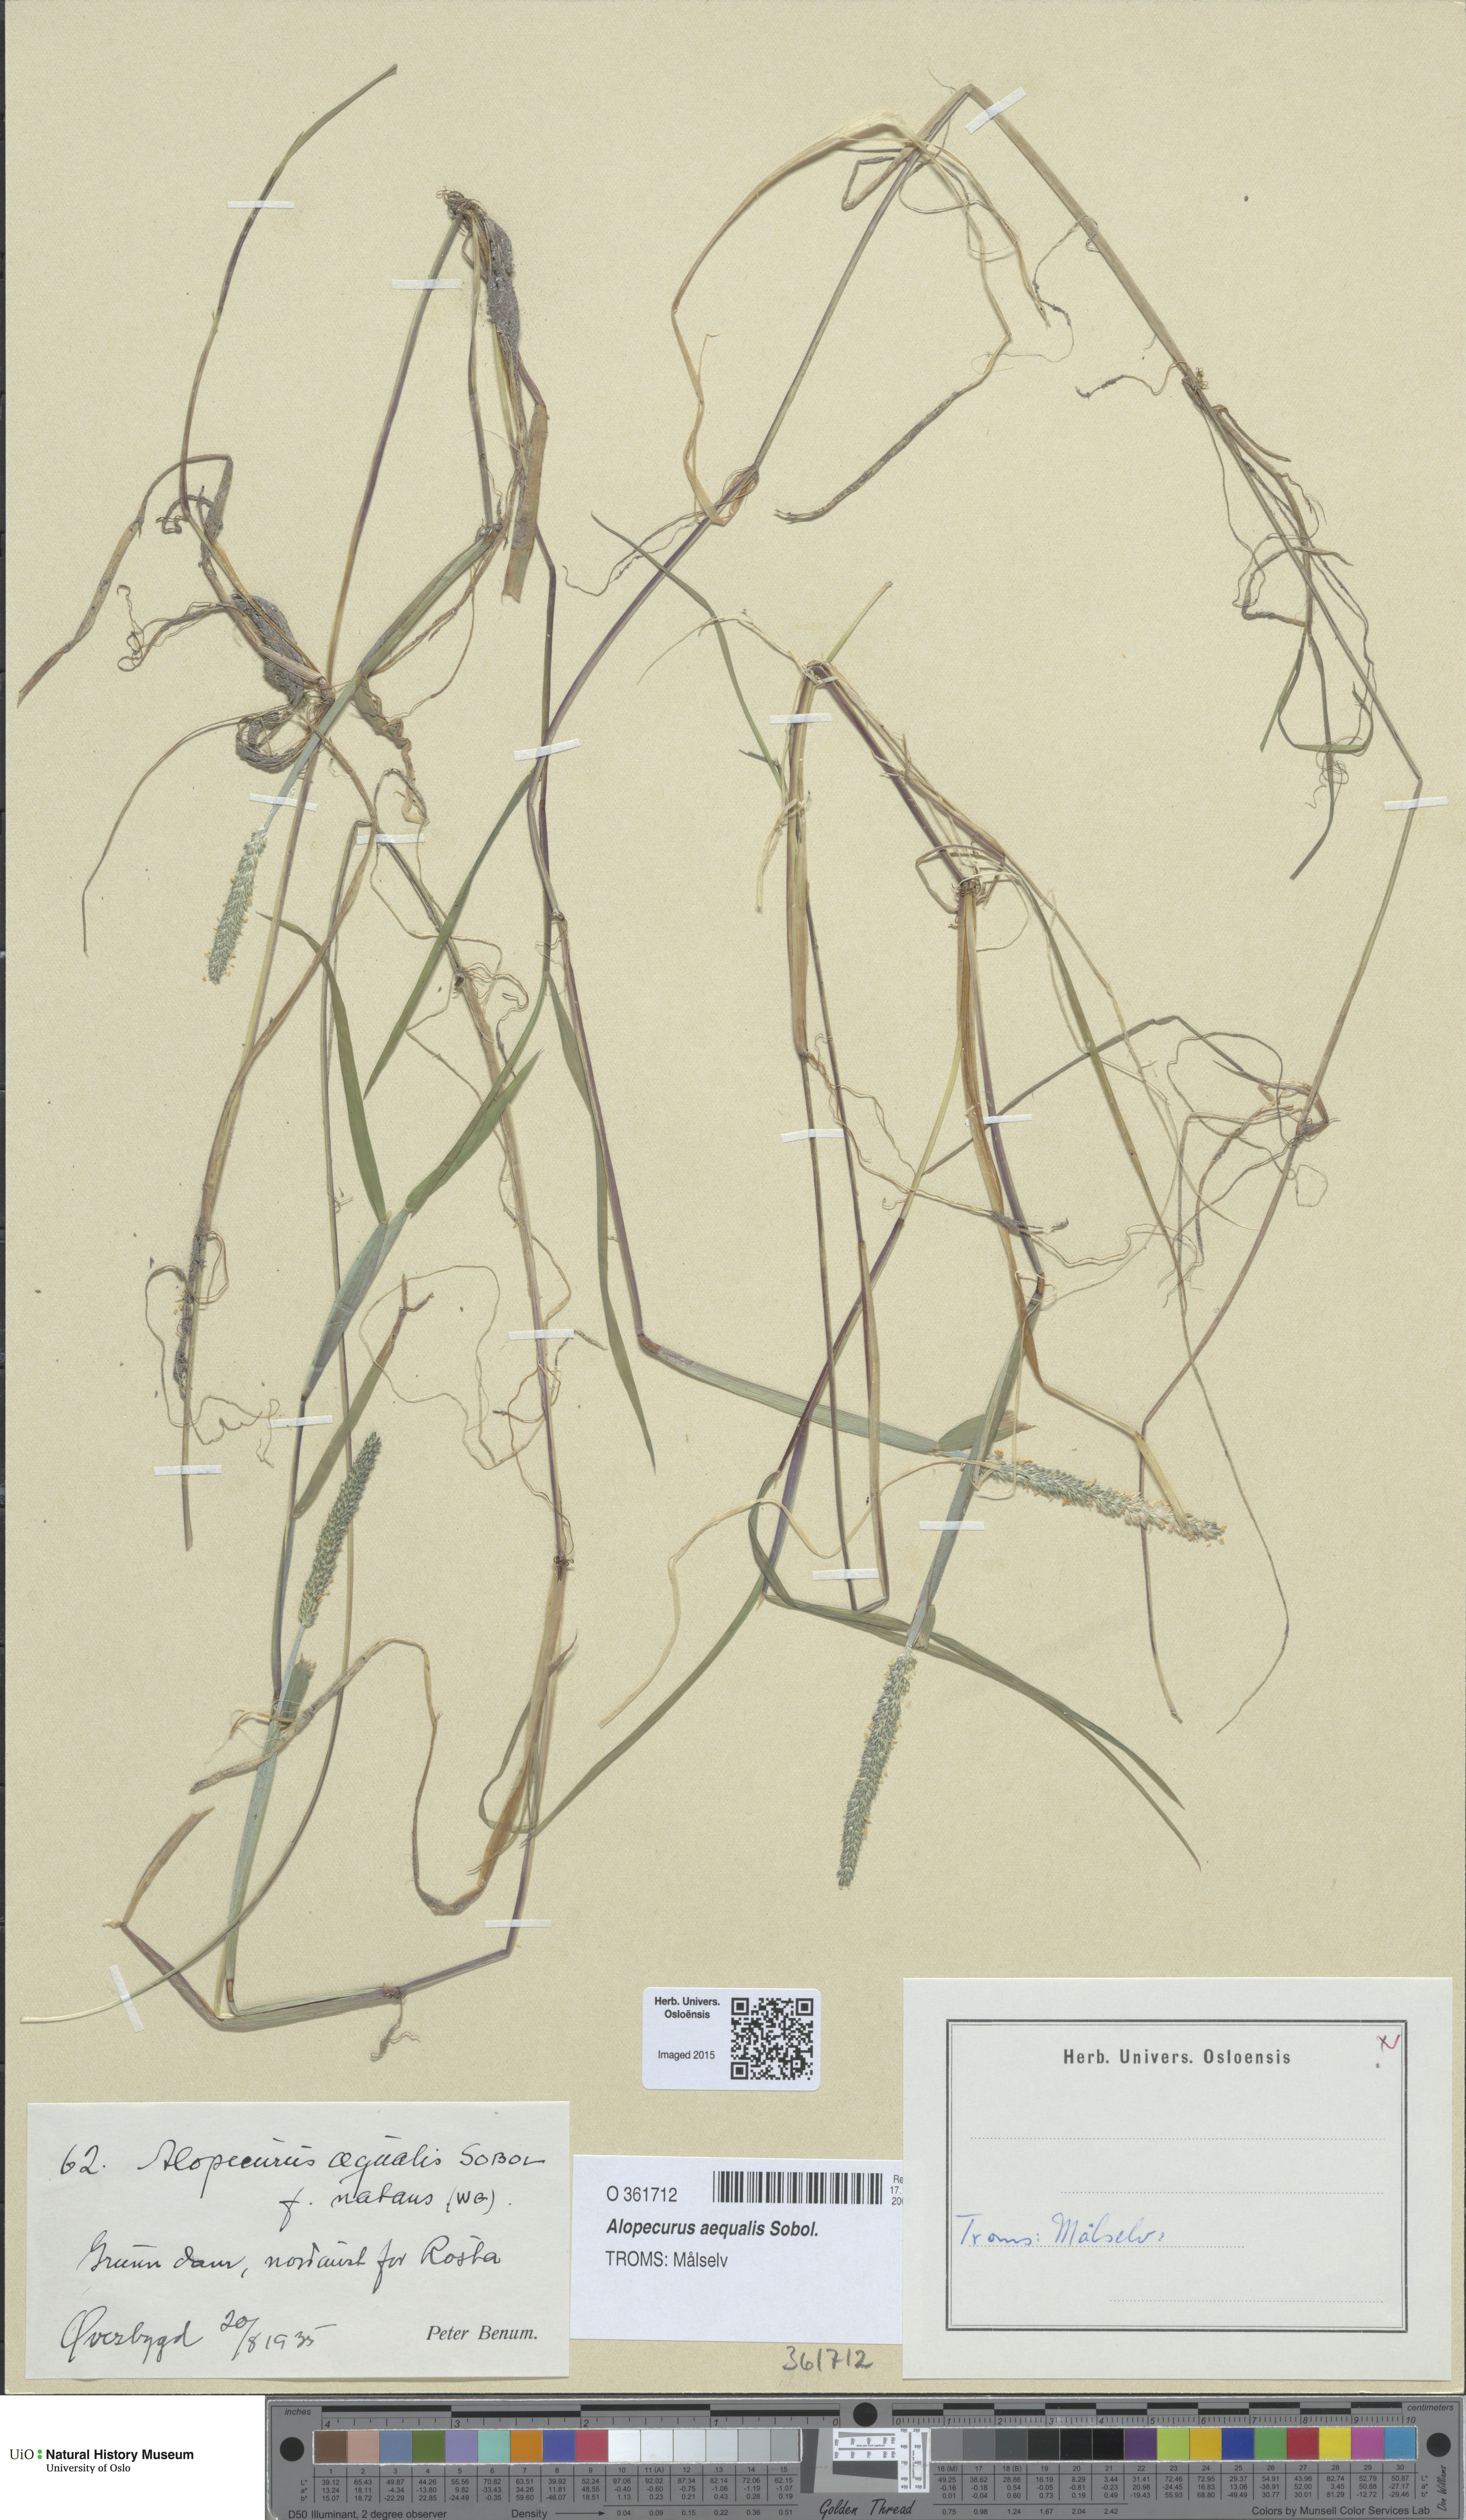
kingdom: Plantae
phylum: Tracheophyta
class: Liliopsida
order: Poales
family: Poaceae
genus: Alopecurus
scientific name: Alopecurus aequalis
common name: Orange foxtail
